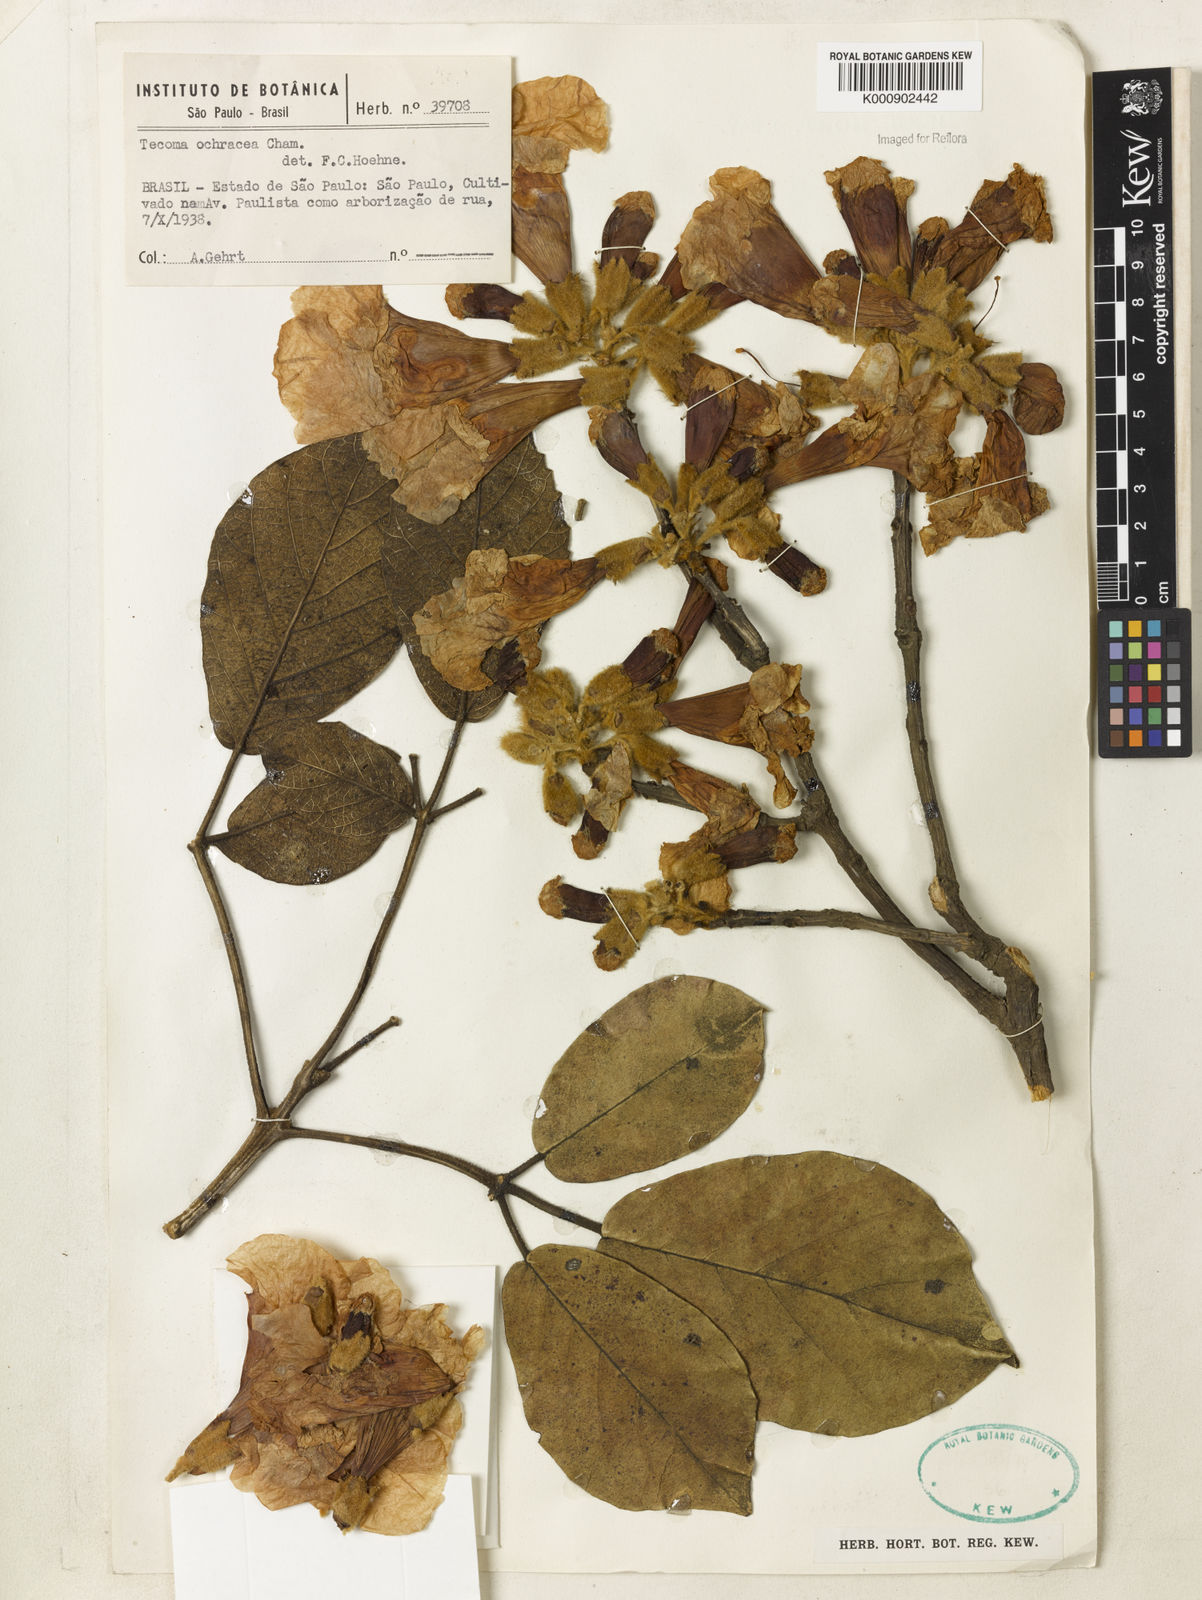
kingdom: Plantae
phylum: Tracheophyta
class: Magnoliopsida
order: Lamiales
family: Bignoniaceae
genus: Handroanthus
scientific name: Handroanthus ochraceus
